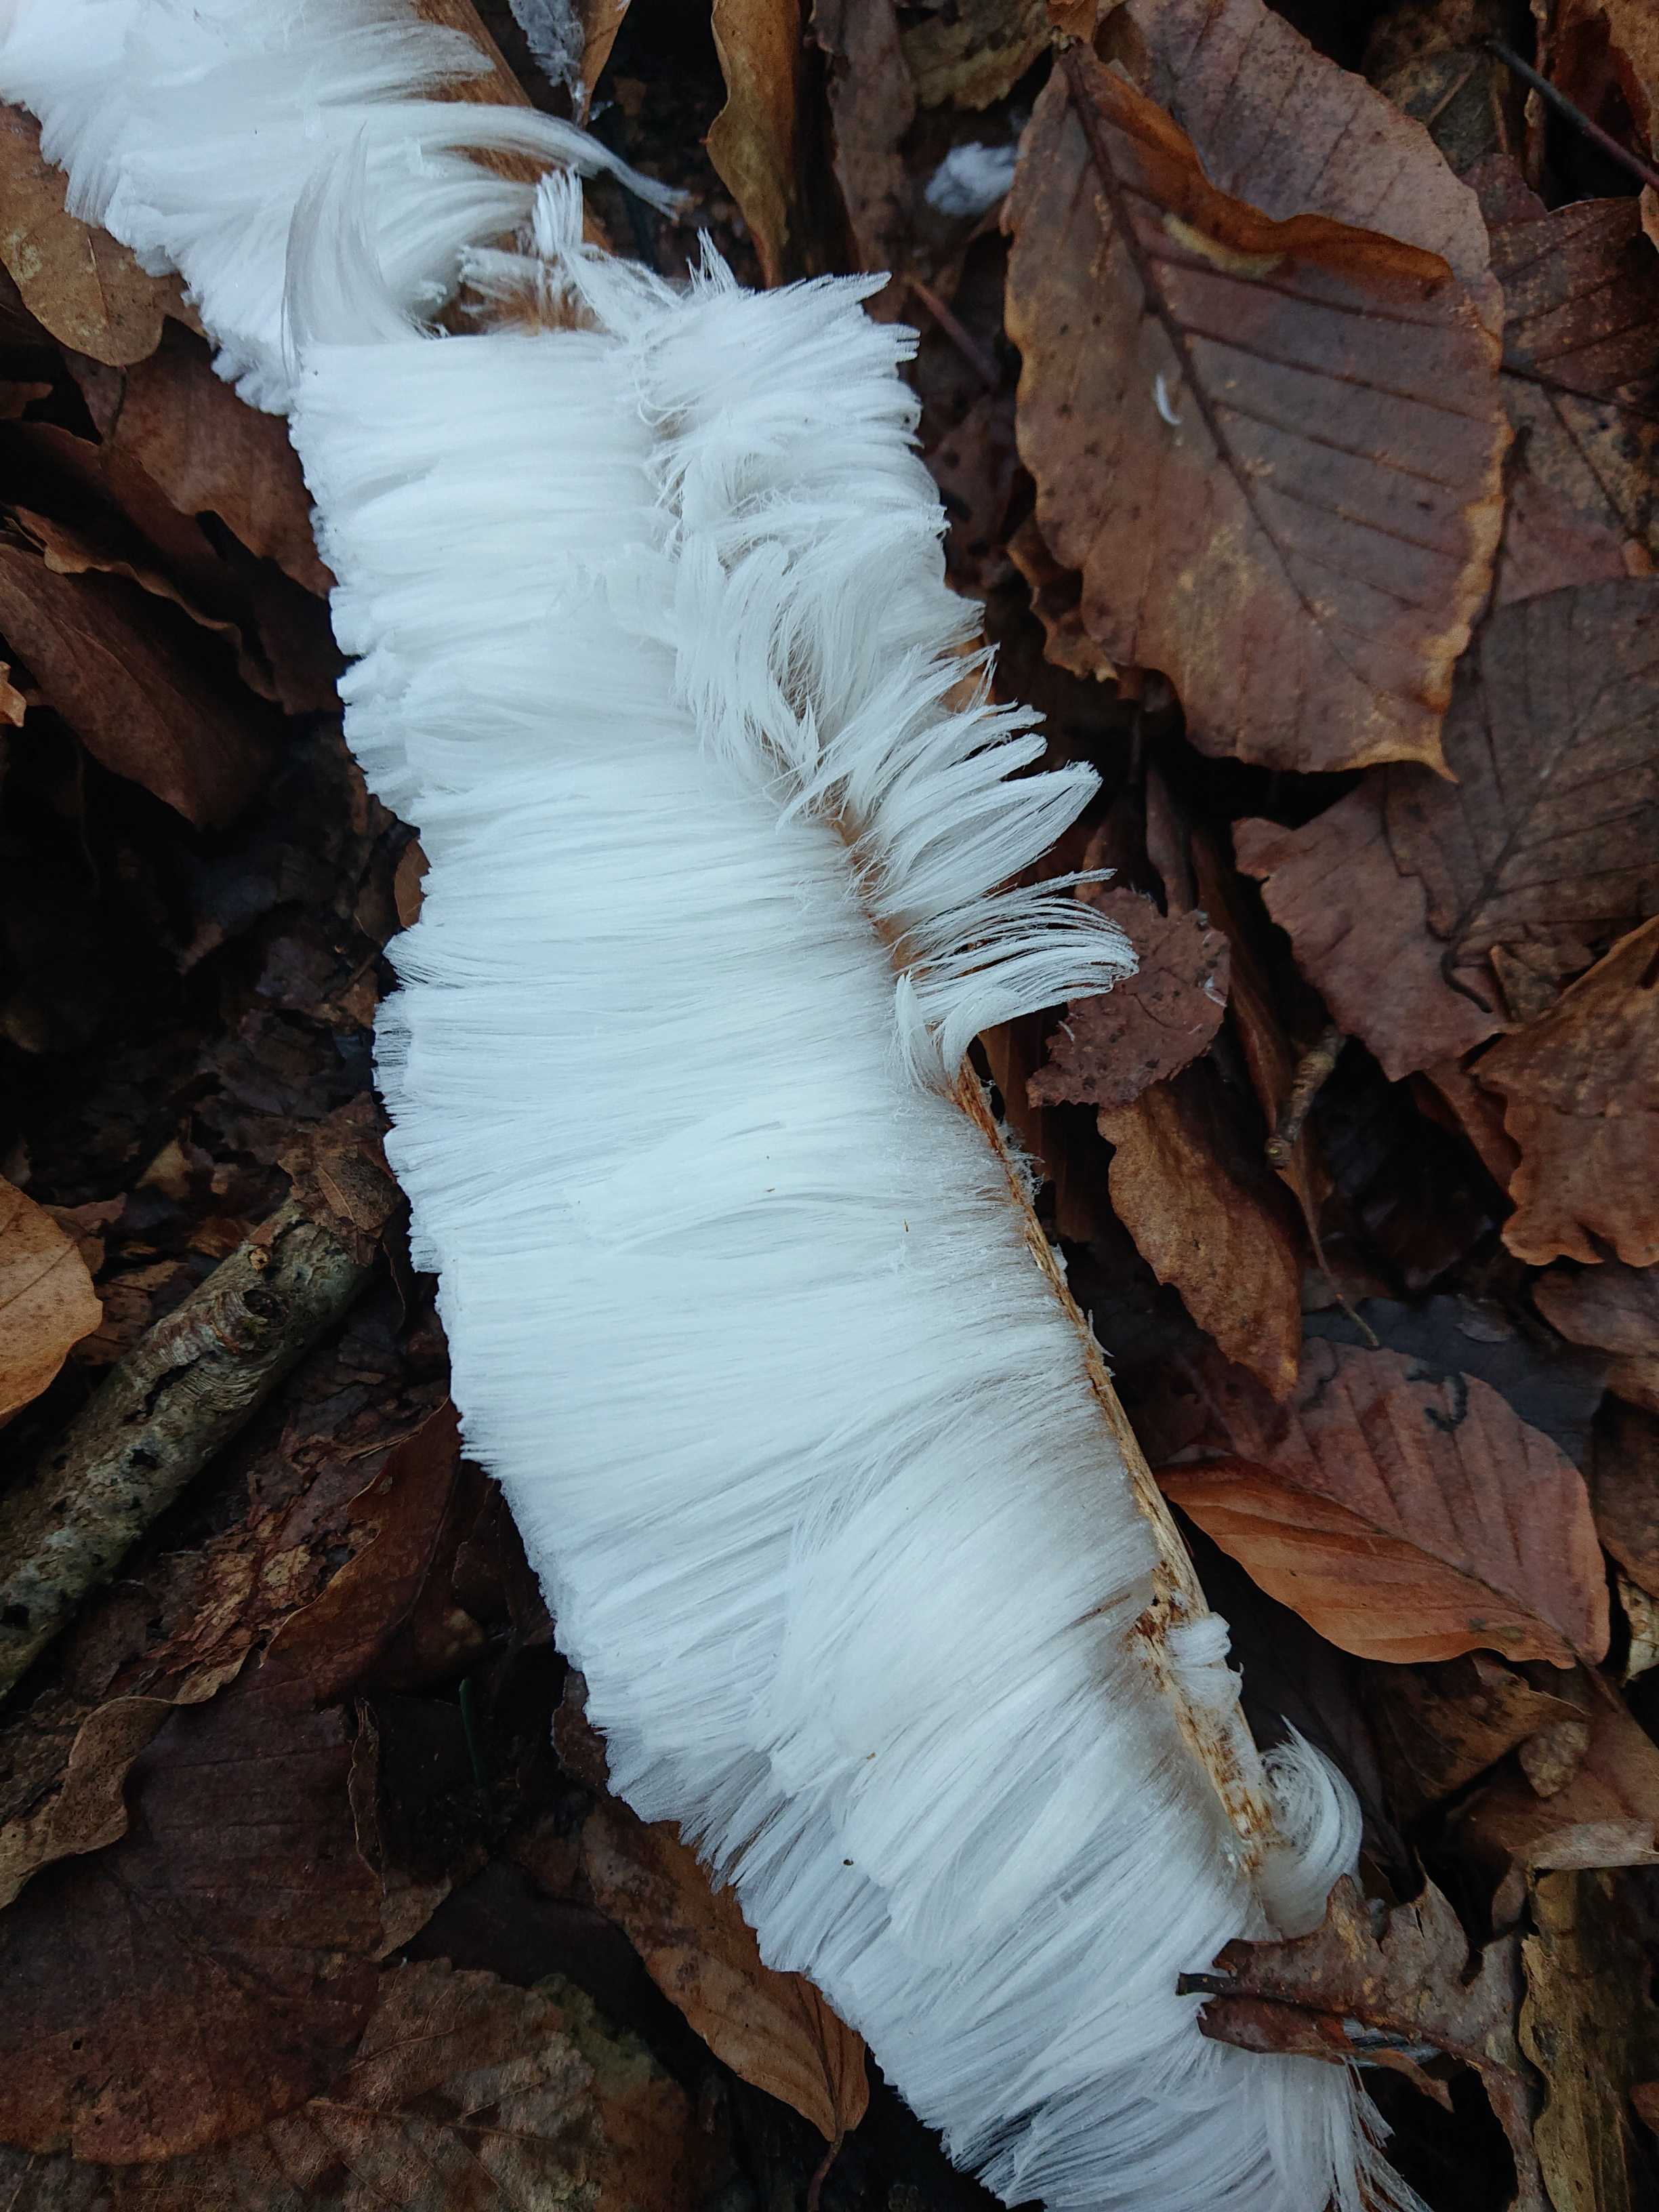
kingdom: Fungi
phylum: Basidiomycota
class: Tremellomycetes
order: Tremellales
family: Exidiaceae
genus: Exidiopsis
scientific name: Exidiopsis effusa
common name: smuk bævrehinde
